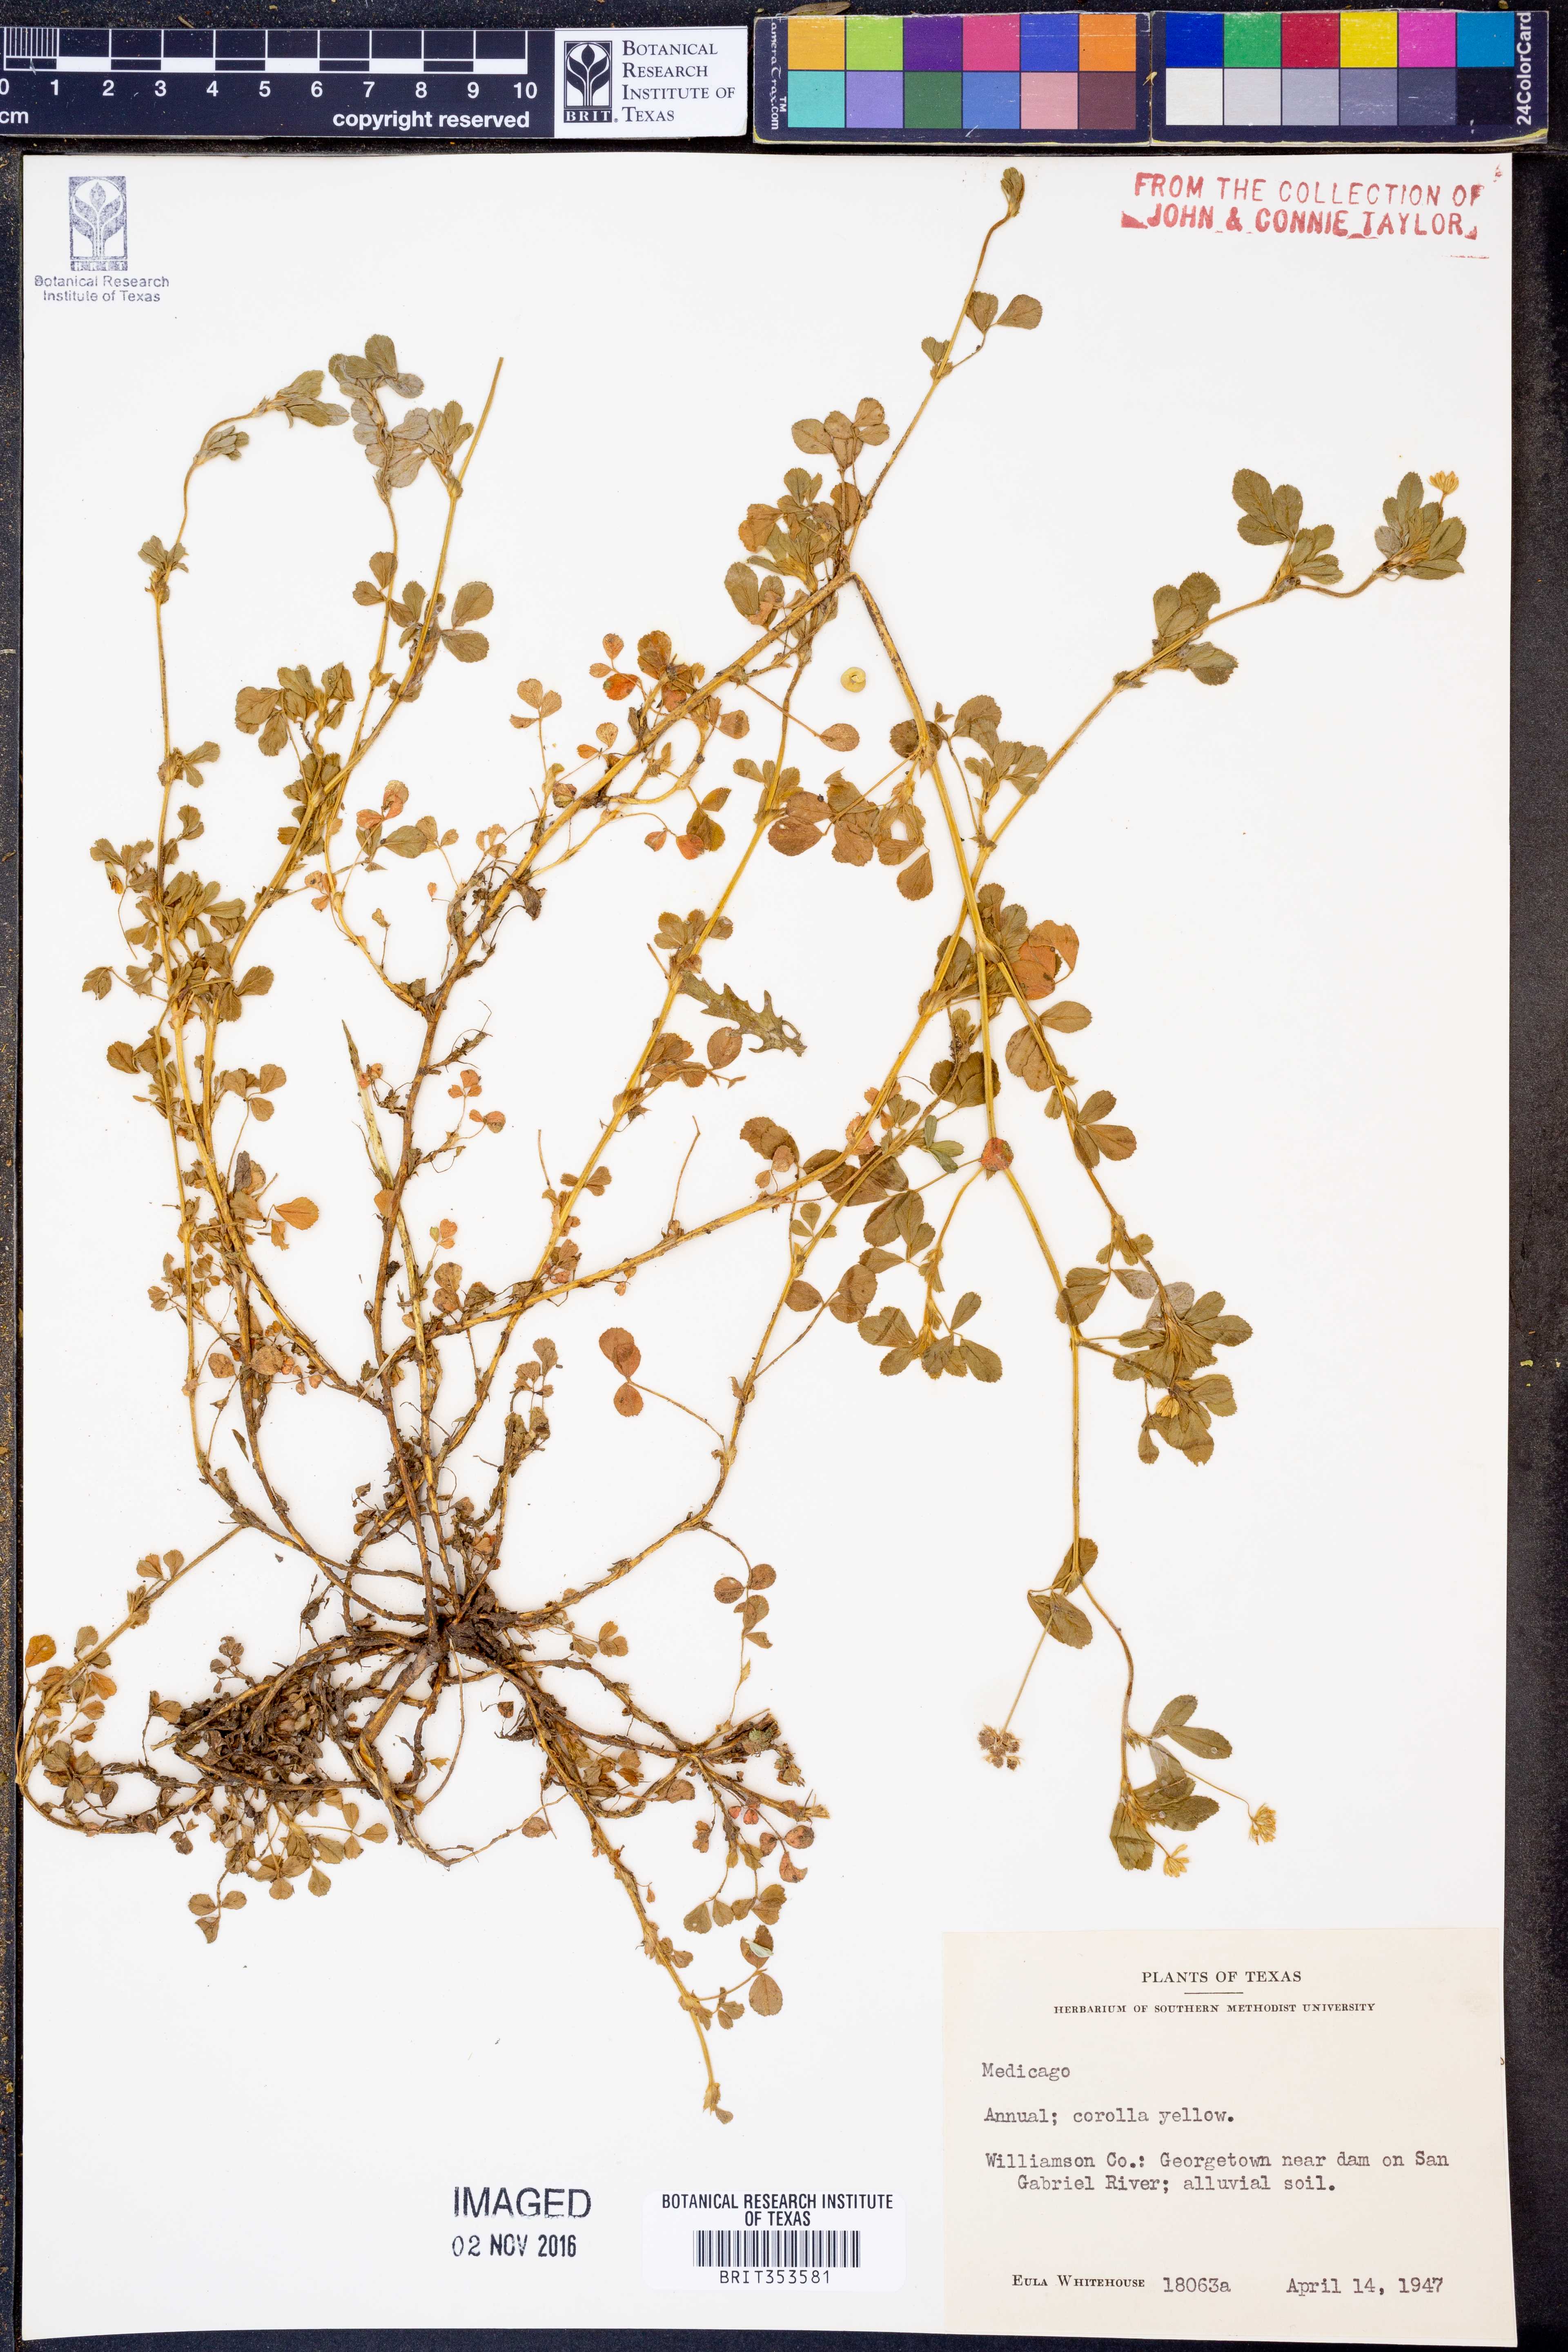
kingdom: Plantae
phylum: Tracheophyta
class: Magnoliopsida
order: Fabales
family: Fabaceae
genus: Medicago
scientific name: Medicago
